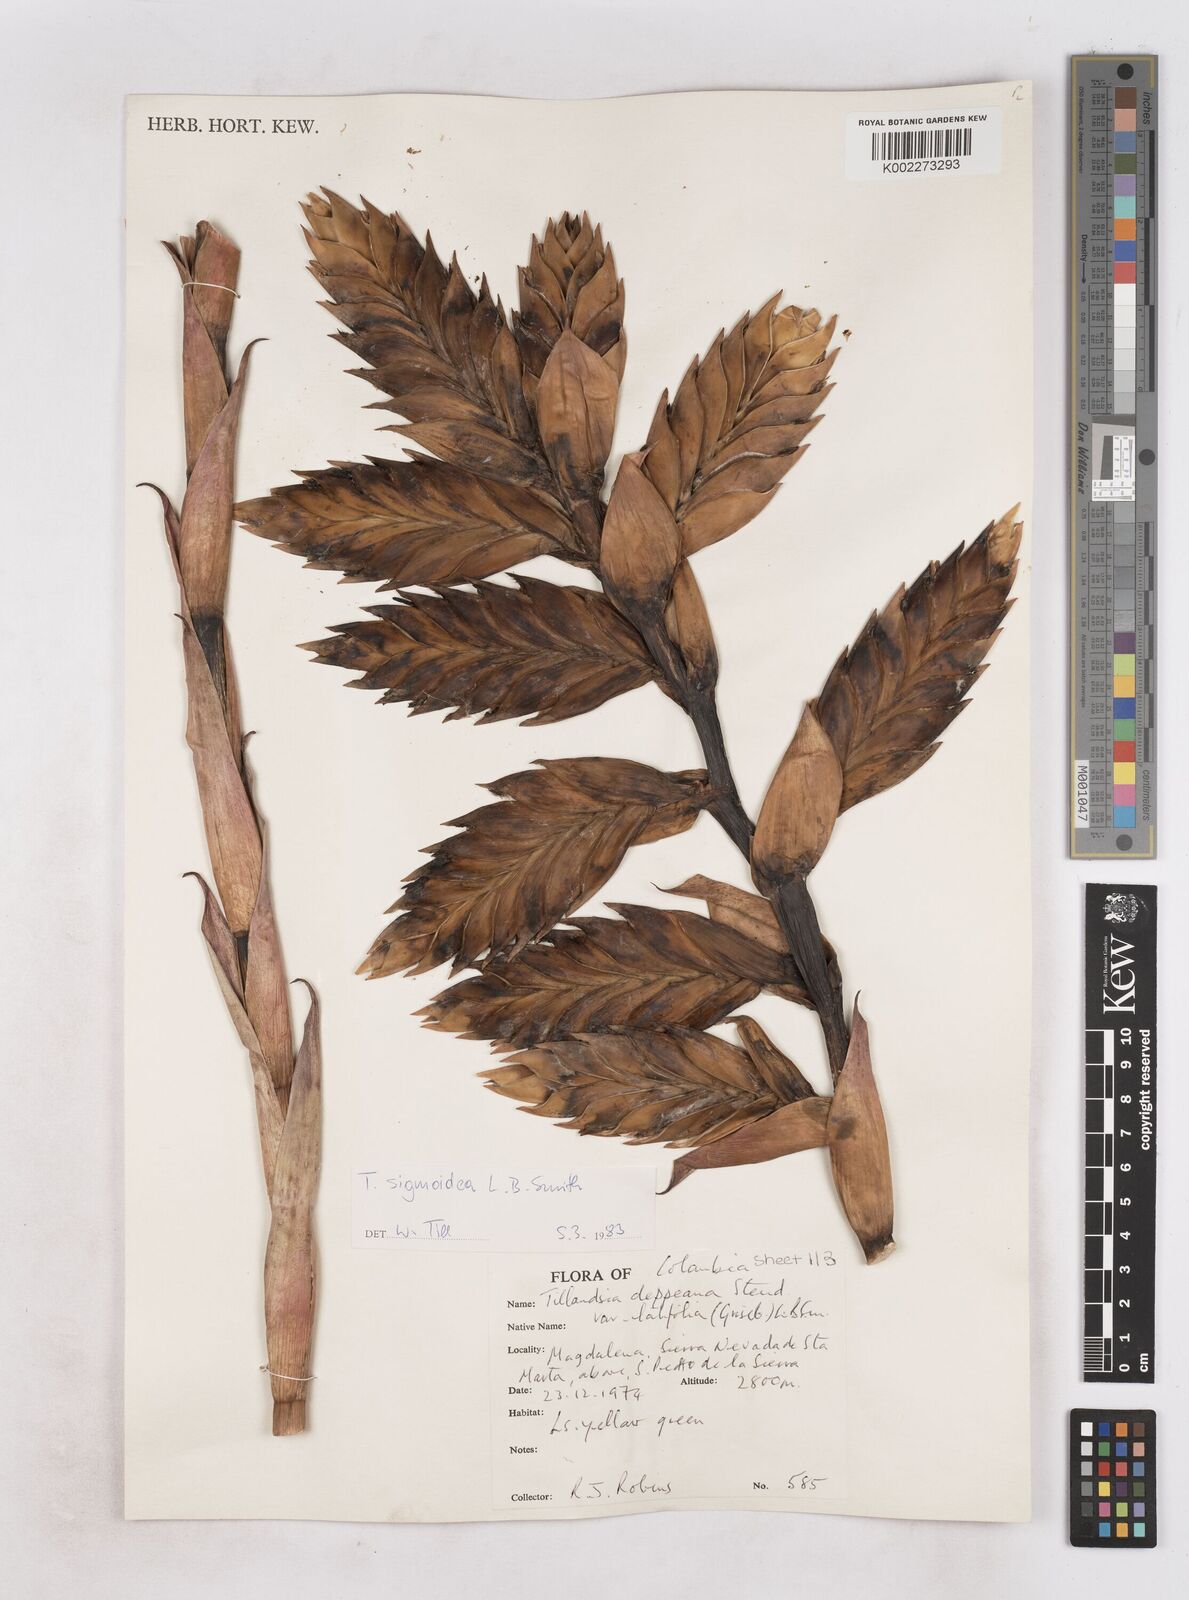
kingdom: Plantae
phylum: Tracheophyta
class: Liliopsida
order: Poales
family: Bromeliaceae
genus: Tillandsia
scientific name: Tillandsia sigmoidea
